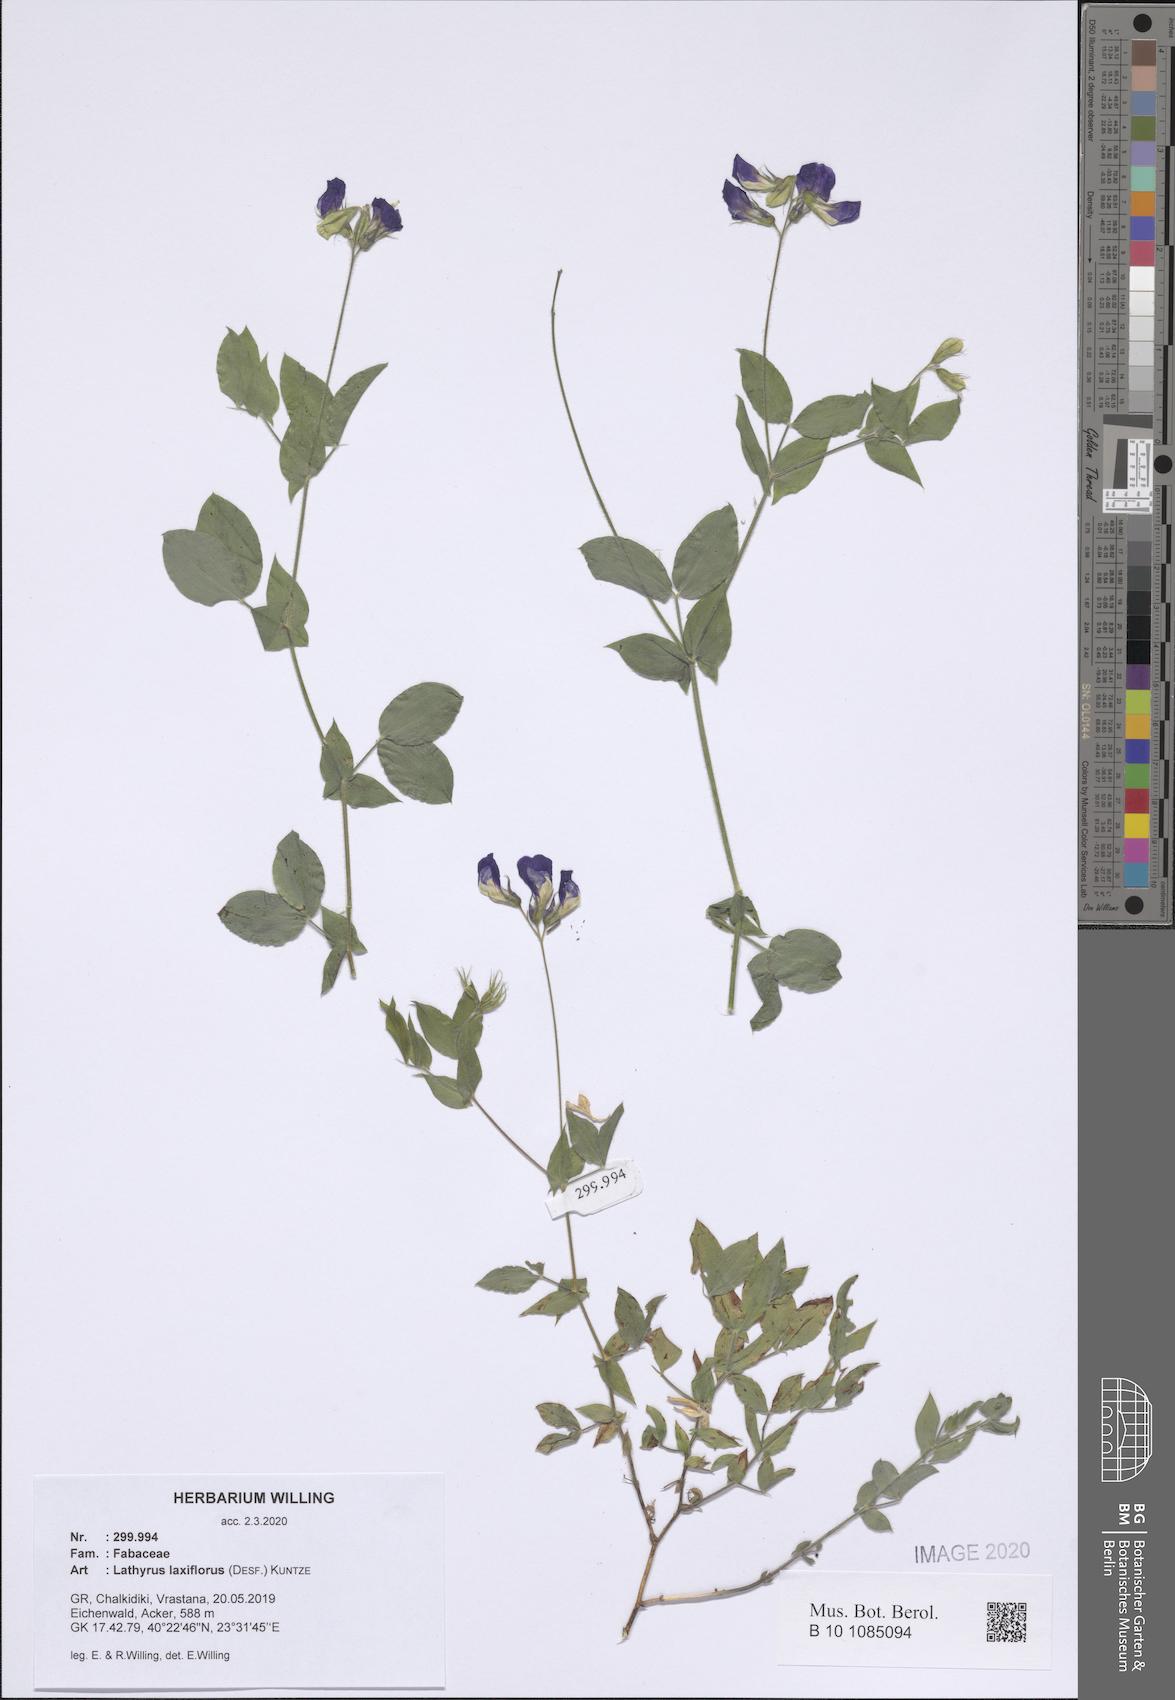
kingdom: Plantae
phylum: Tracheophyta
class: Magnoliopsida
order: Fabales
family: Fabaceae
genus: Lathyrus
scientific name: Lathyrus laxiflorus
